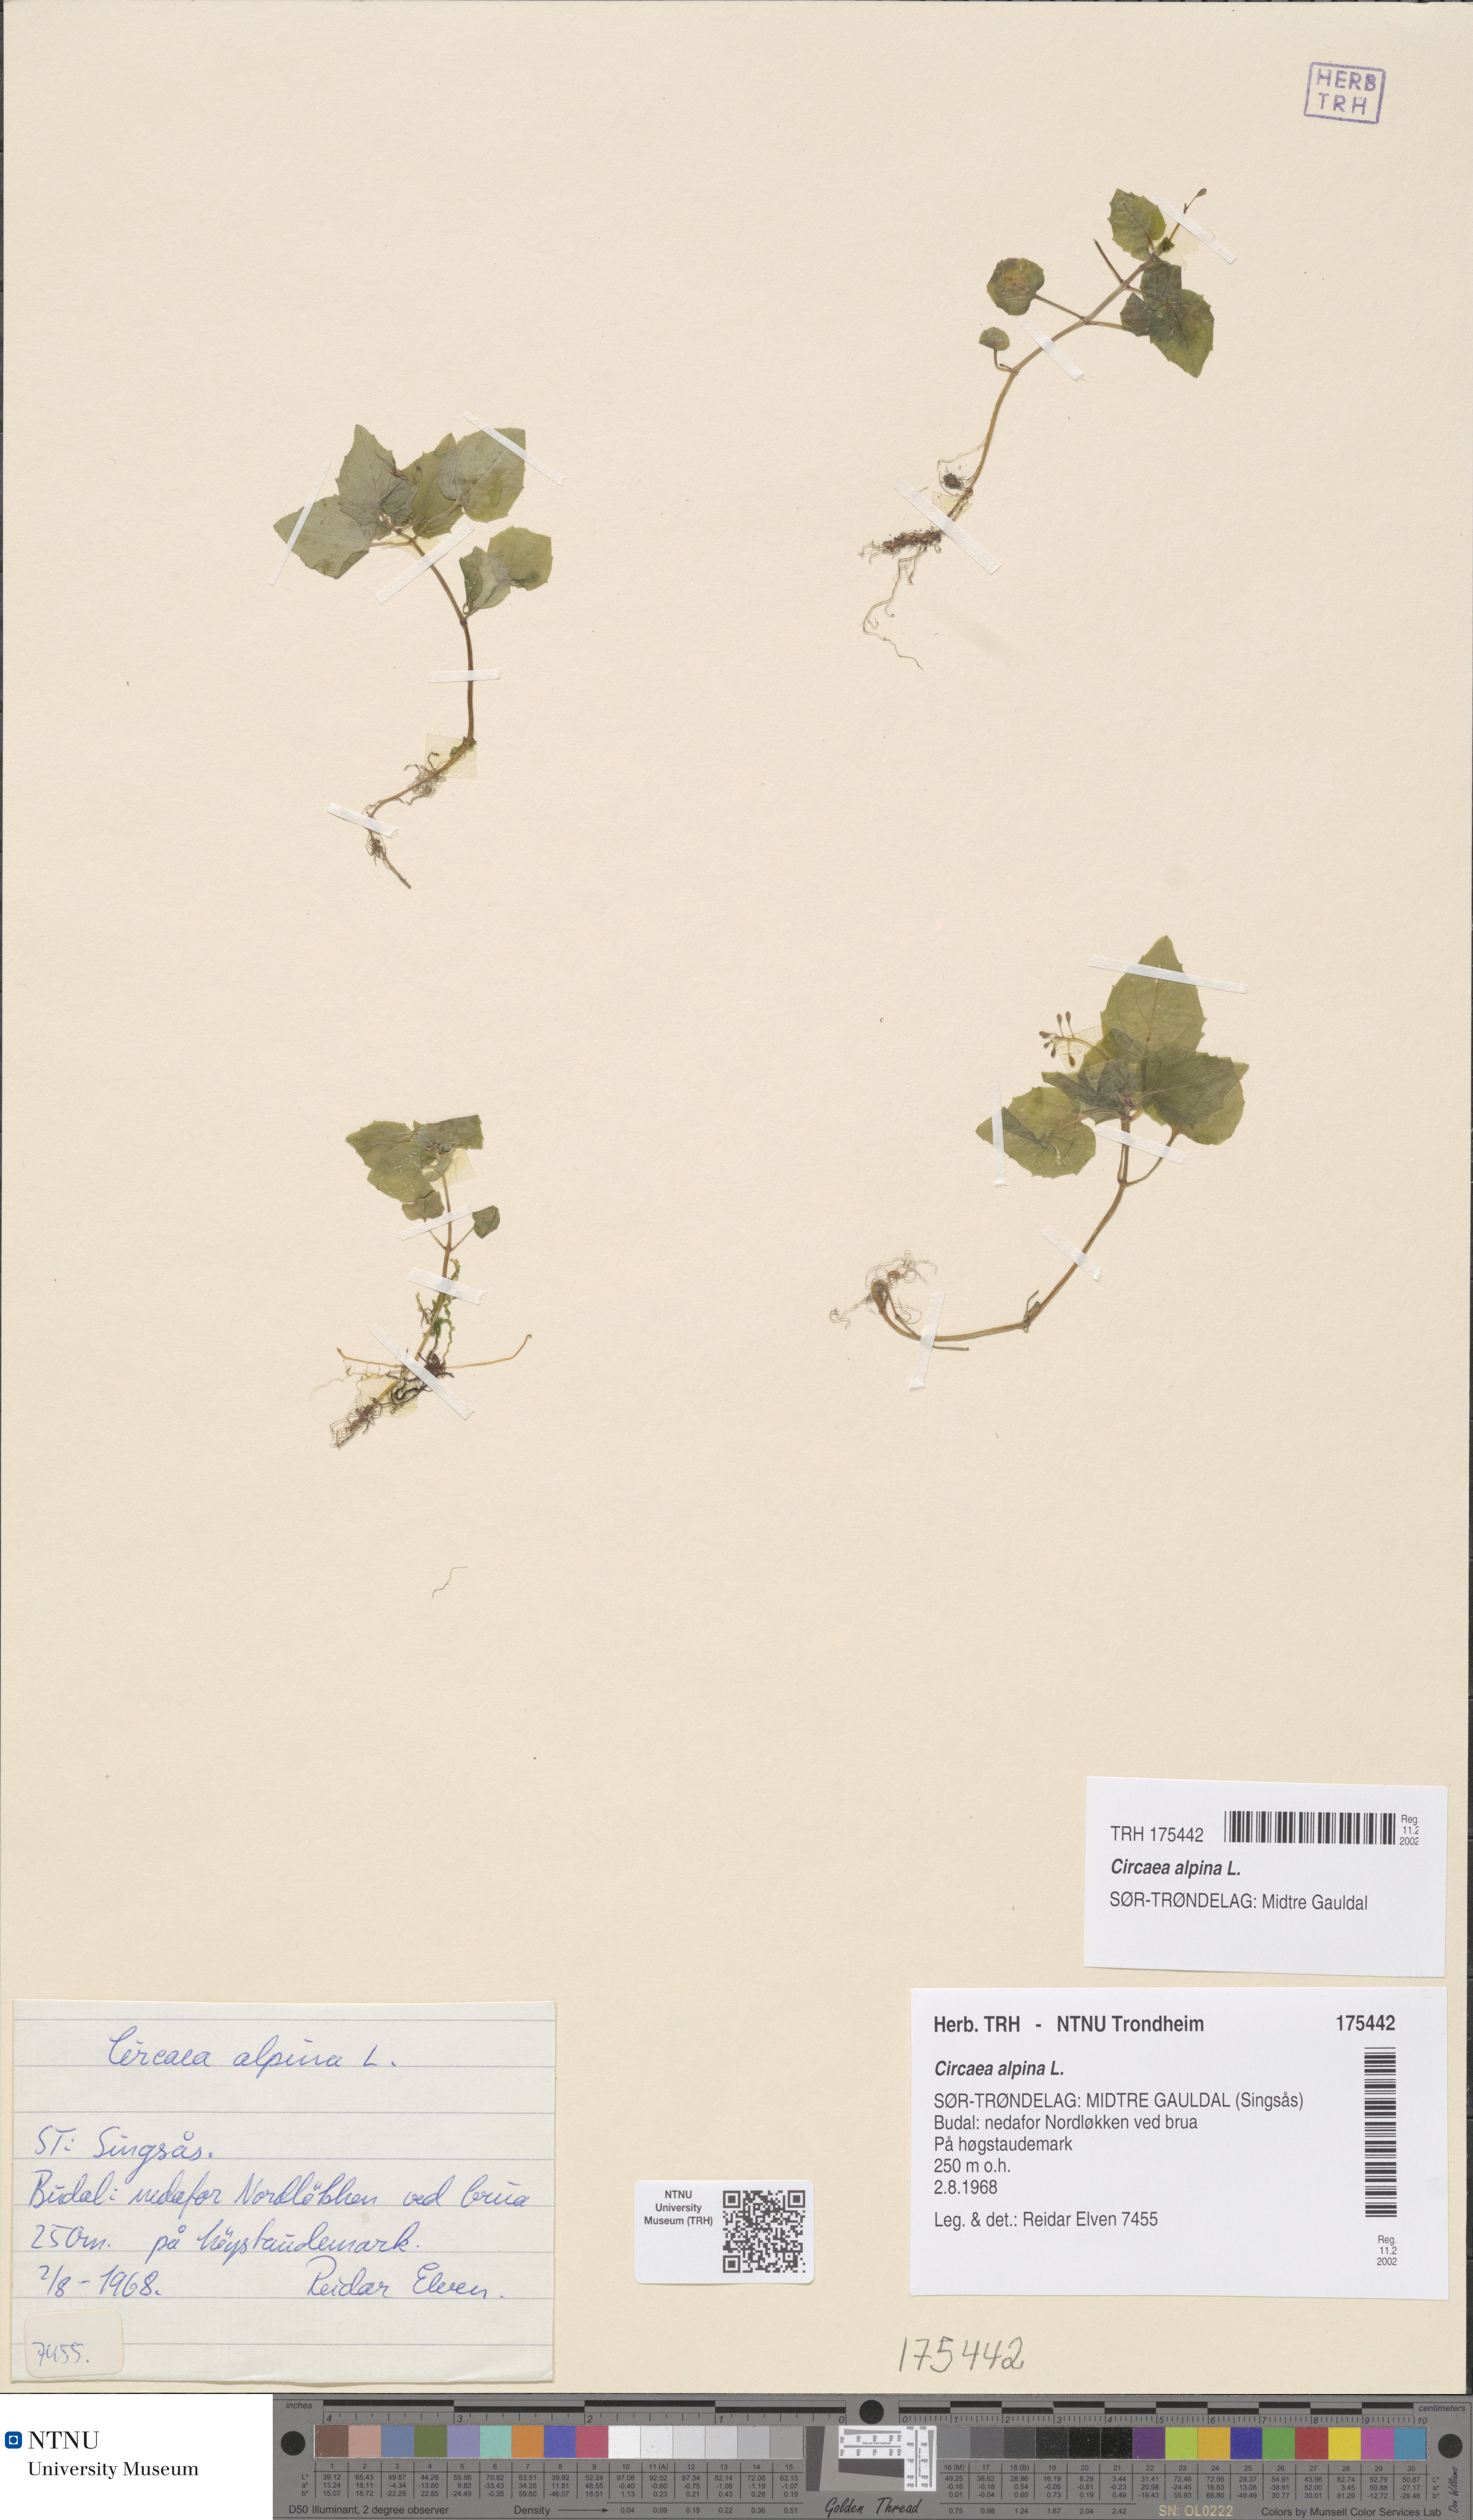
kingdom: Plantae
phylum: Tracheophyta
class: Magnoliopsida
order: Myrtales
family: Onagraceae
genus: Circaea
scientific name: Circaea alpina
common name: Alpine enchanter's-nightshade
